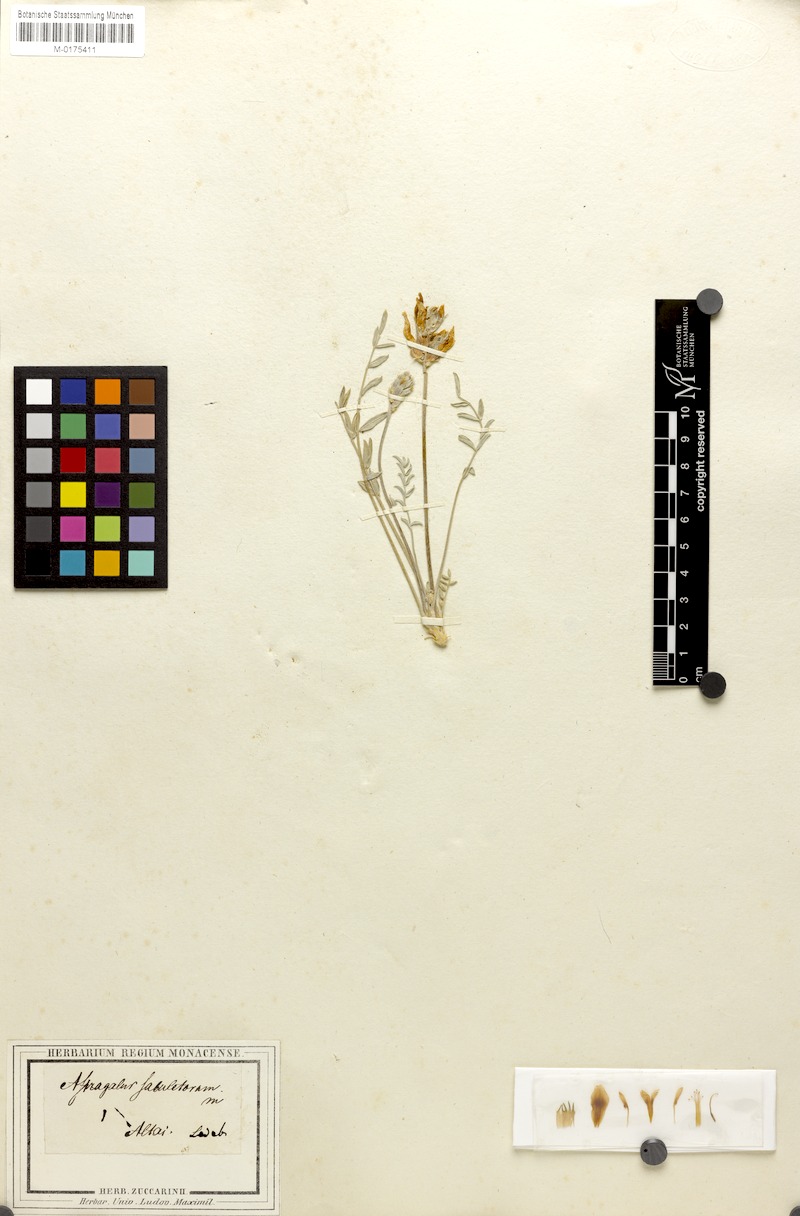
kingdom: Plantae
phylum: Tracheophyta
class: Magnoliopsida
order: Fabales
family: Fabaceae
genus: Astragalus
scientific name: Astragalus sabuletorum
